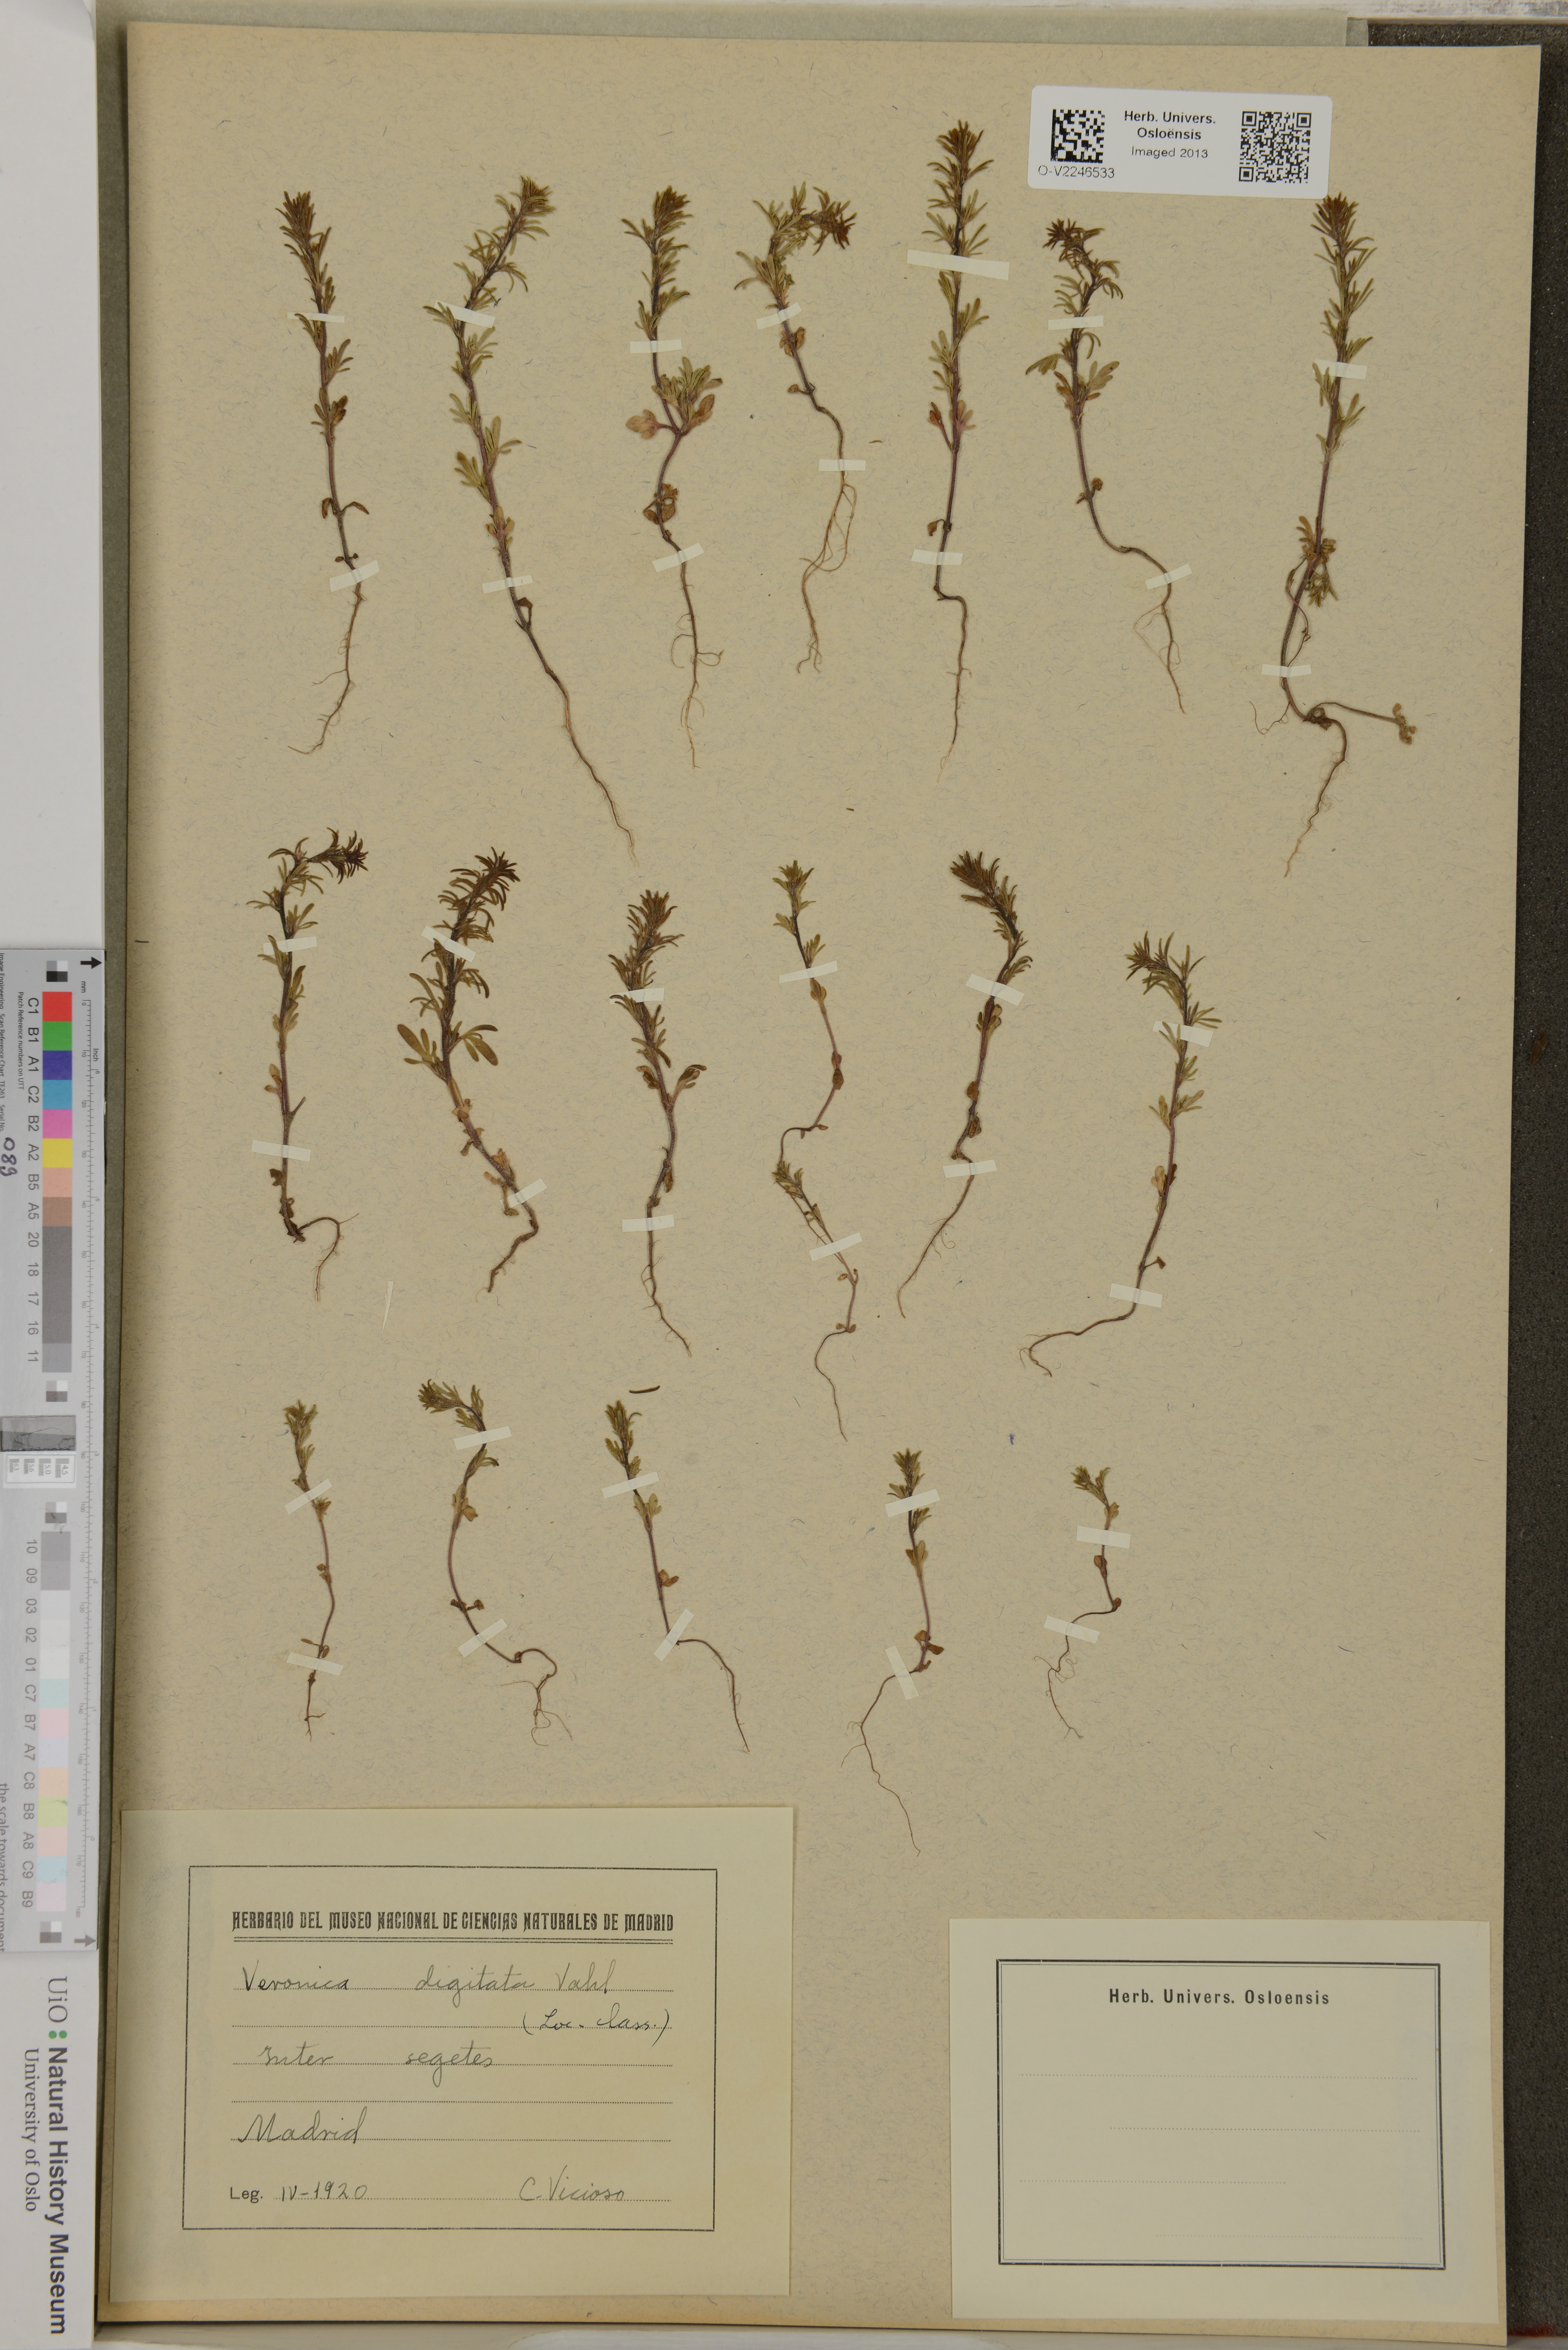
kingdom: Plantae
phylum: Tracheophyta
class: Magnoliopsida
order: Lamiales
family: Plantaginaceae
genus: Veronica
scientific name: Veronica
